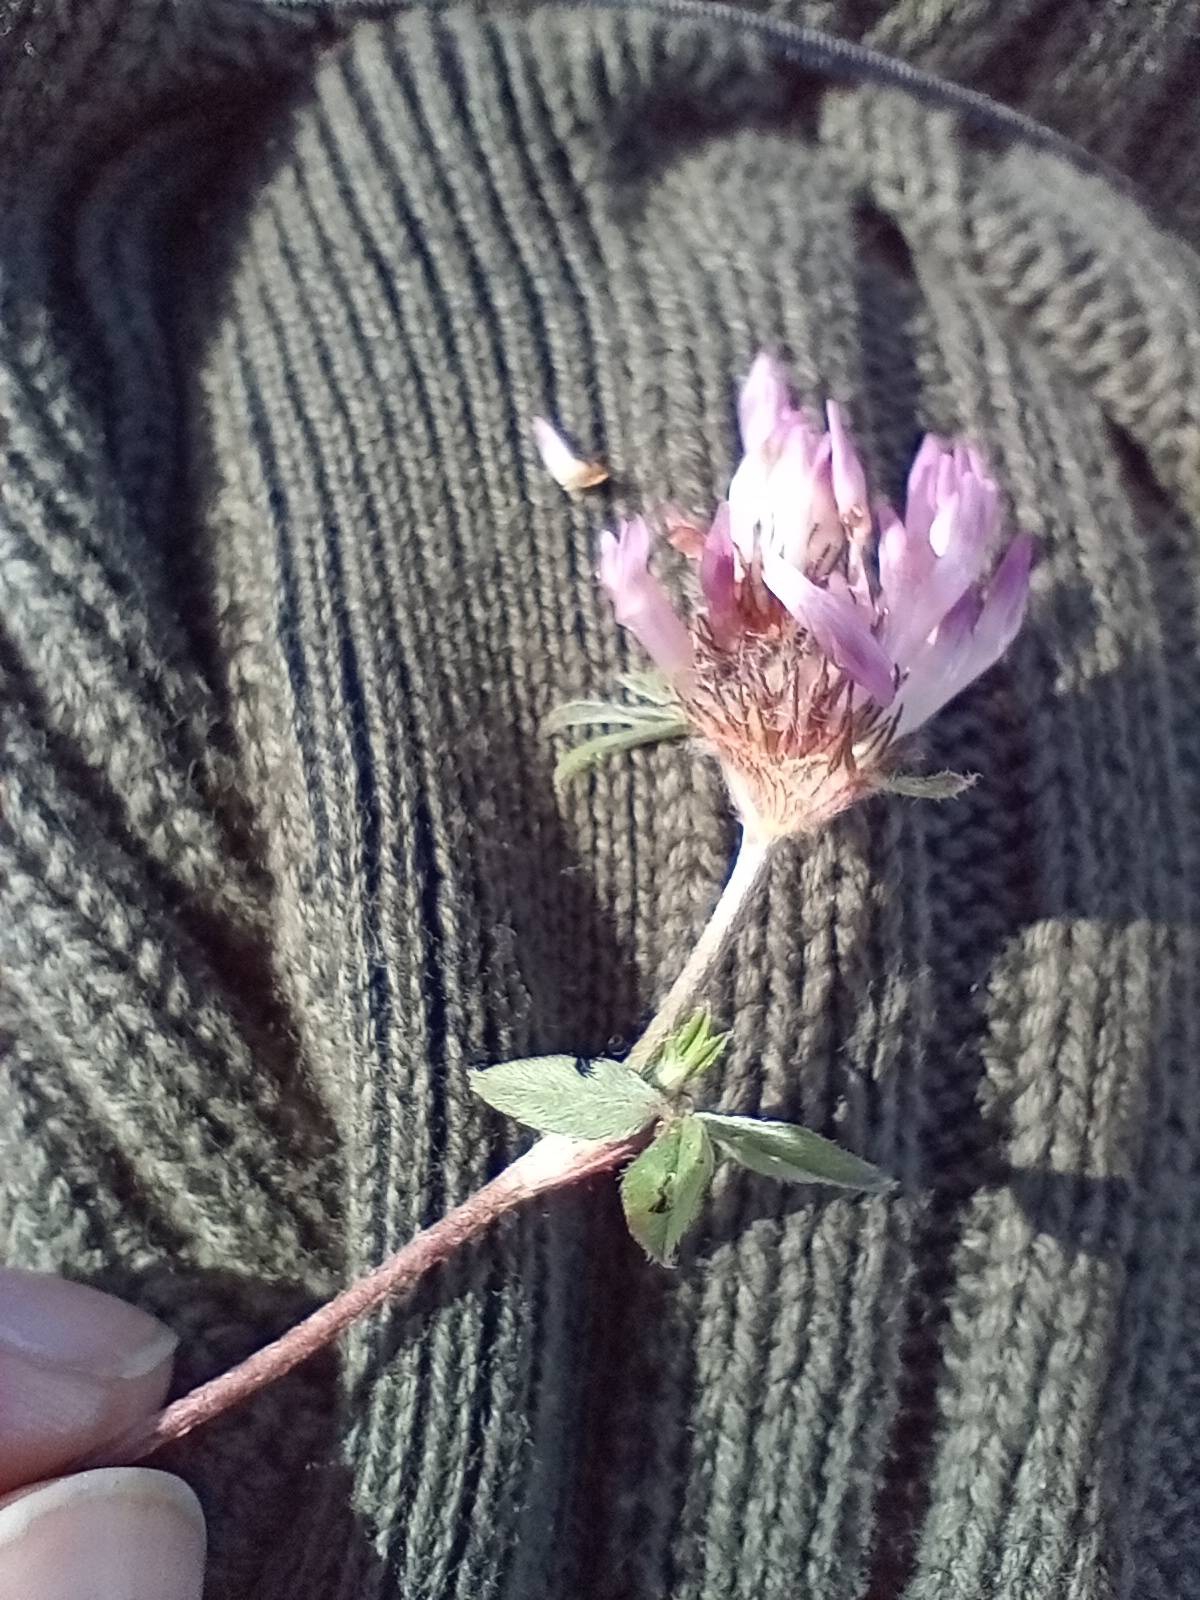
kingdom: Plantae
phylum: Tracheophyta
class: Magnoliopsida
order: Fabales
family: Fabaceae
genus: Trifolium
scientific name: Trifolium pratense
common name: Rød-kløver
